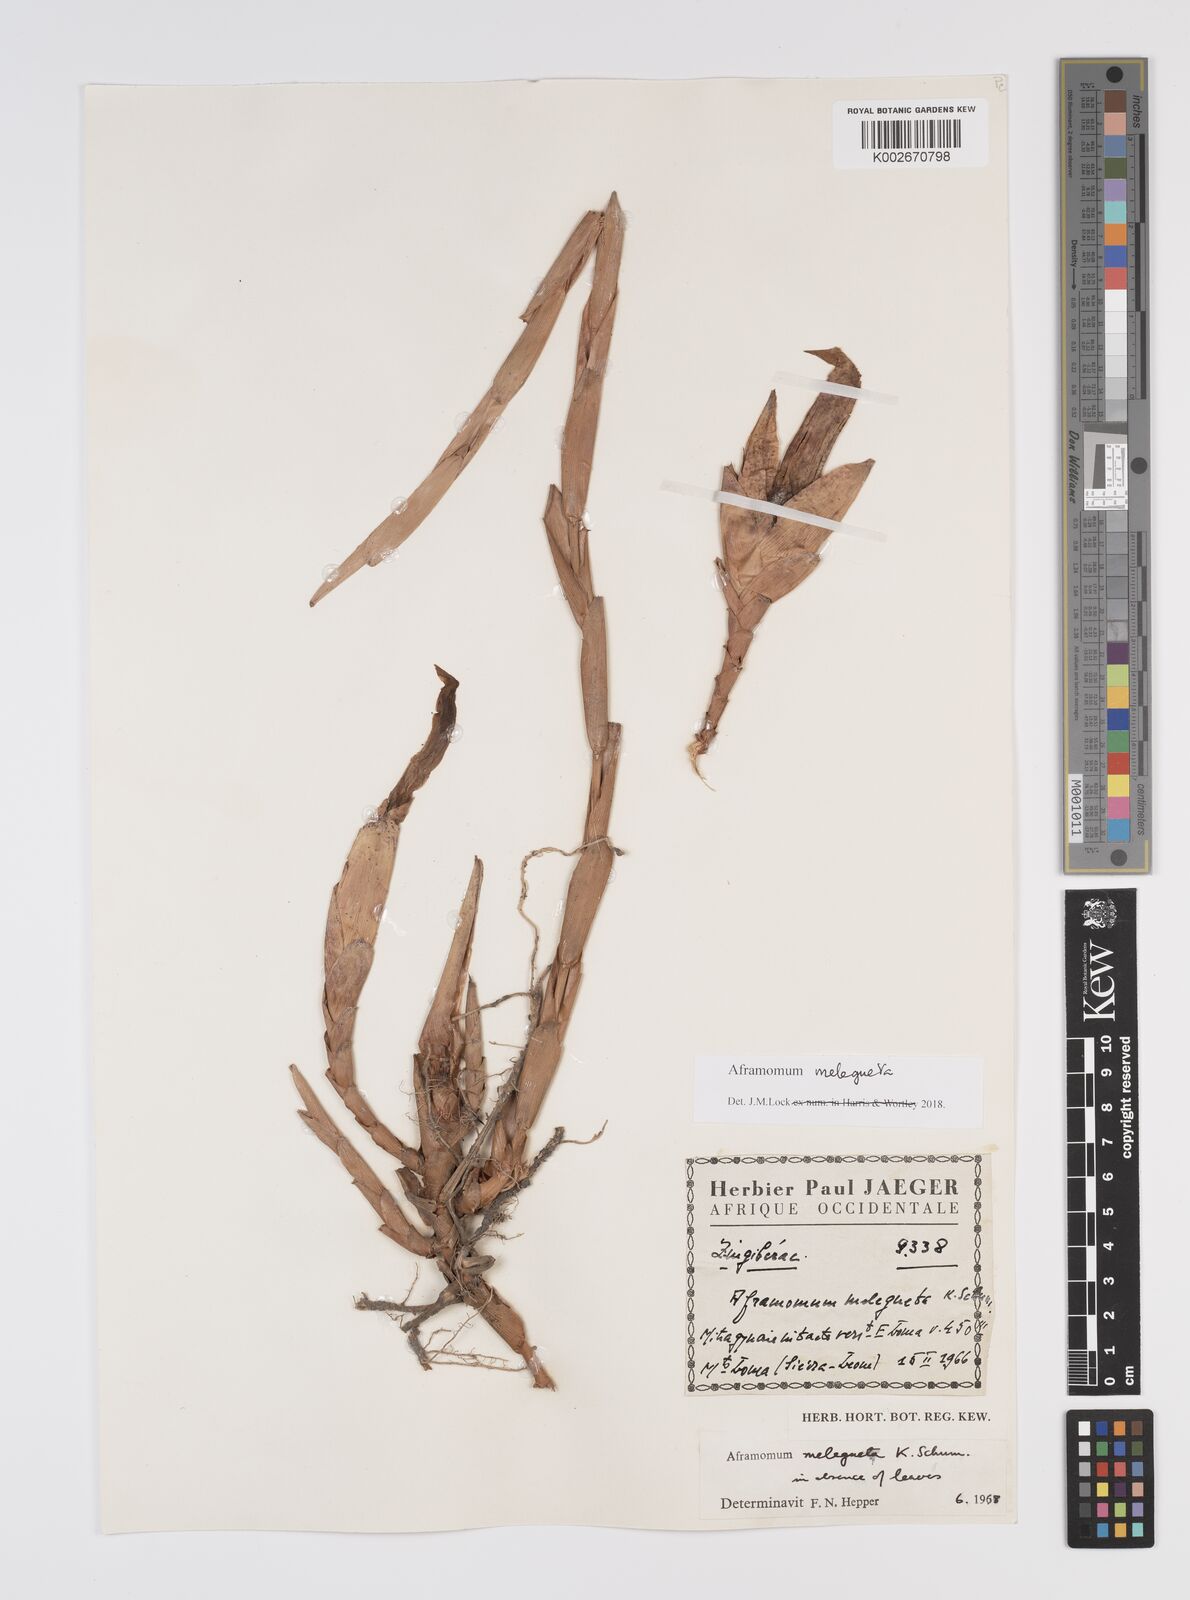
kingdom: Plantae
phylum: Tracheophyta
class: Liliopsida
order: Zingiberales
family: Zingiberaceae
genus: Aframomum
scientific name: Aframomum melegueta
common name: Grains of paradise
